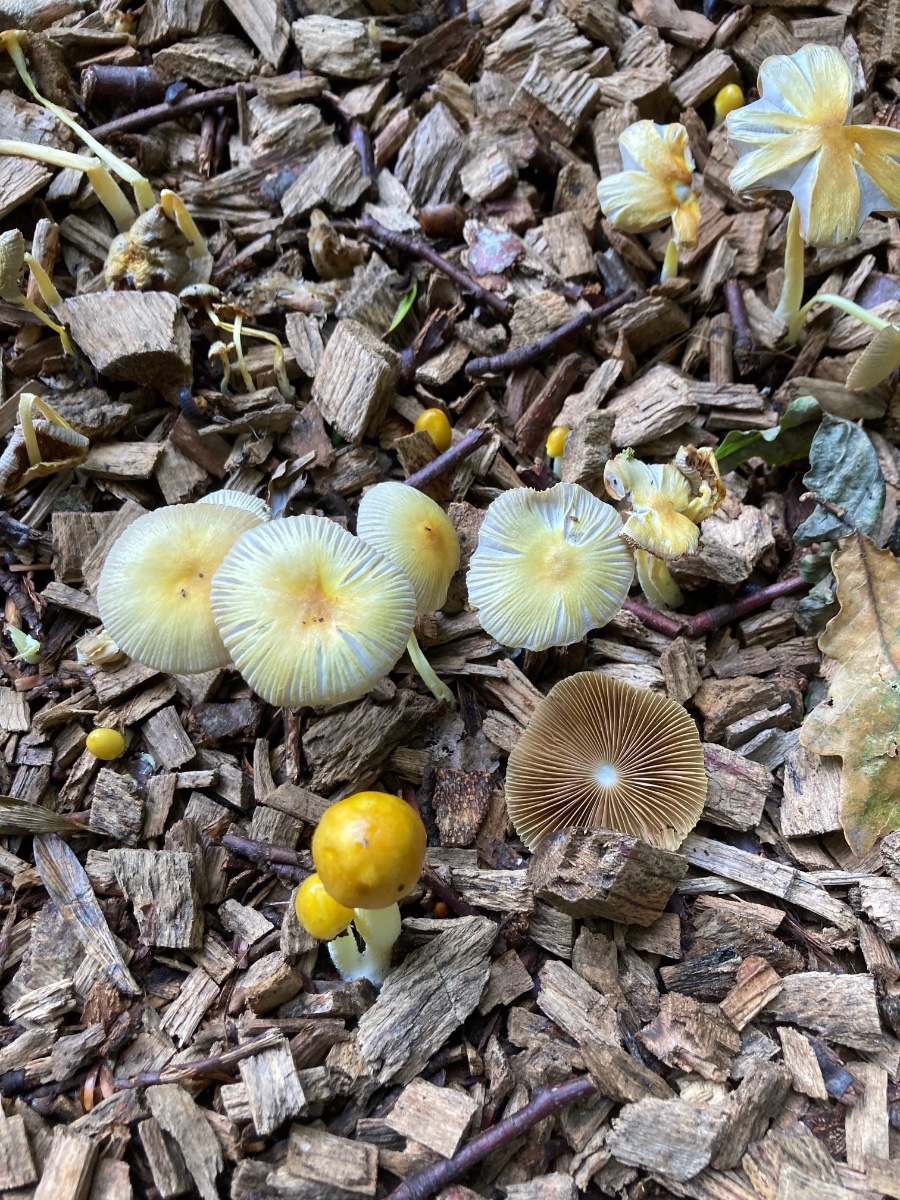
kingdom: Fungi
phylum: Basidiomycota
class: Agaricomycetes
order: Agaricales
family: Bolbitiaceae
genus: Bolbitius
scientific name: Bolbitius titubans
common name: almindelig gulhat
